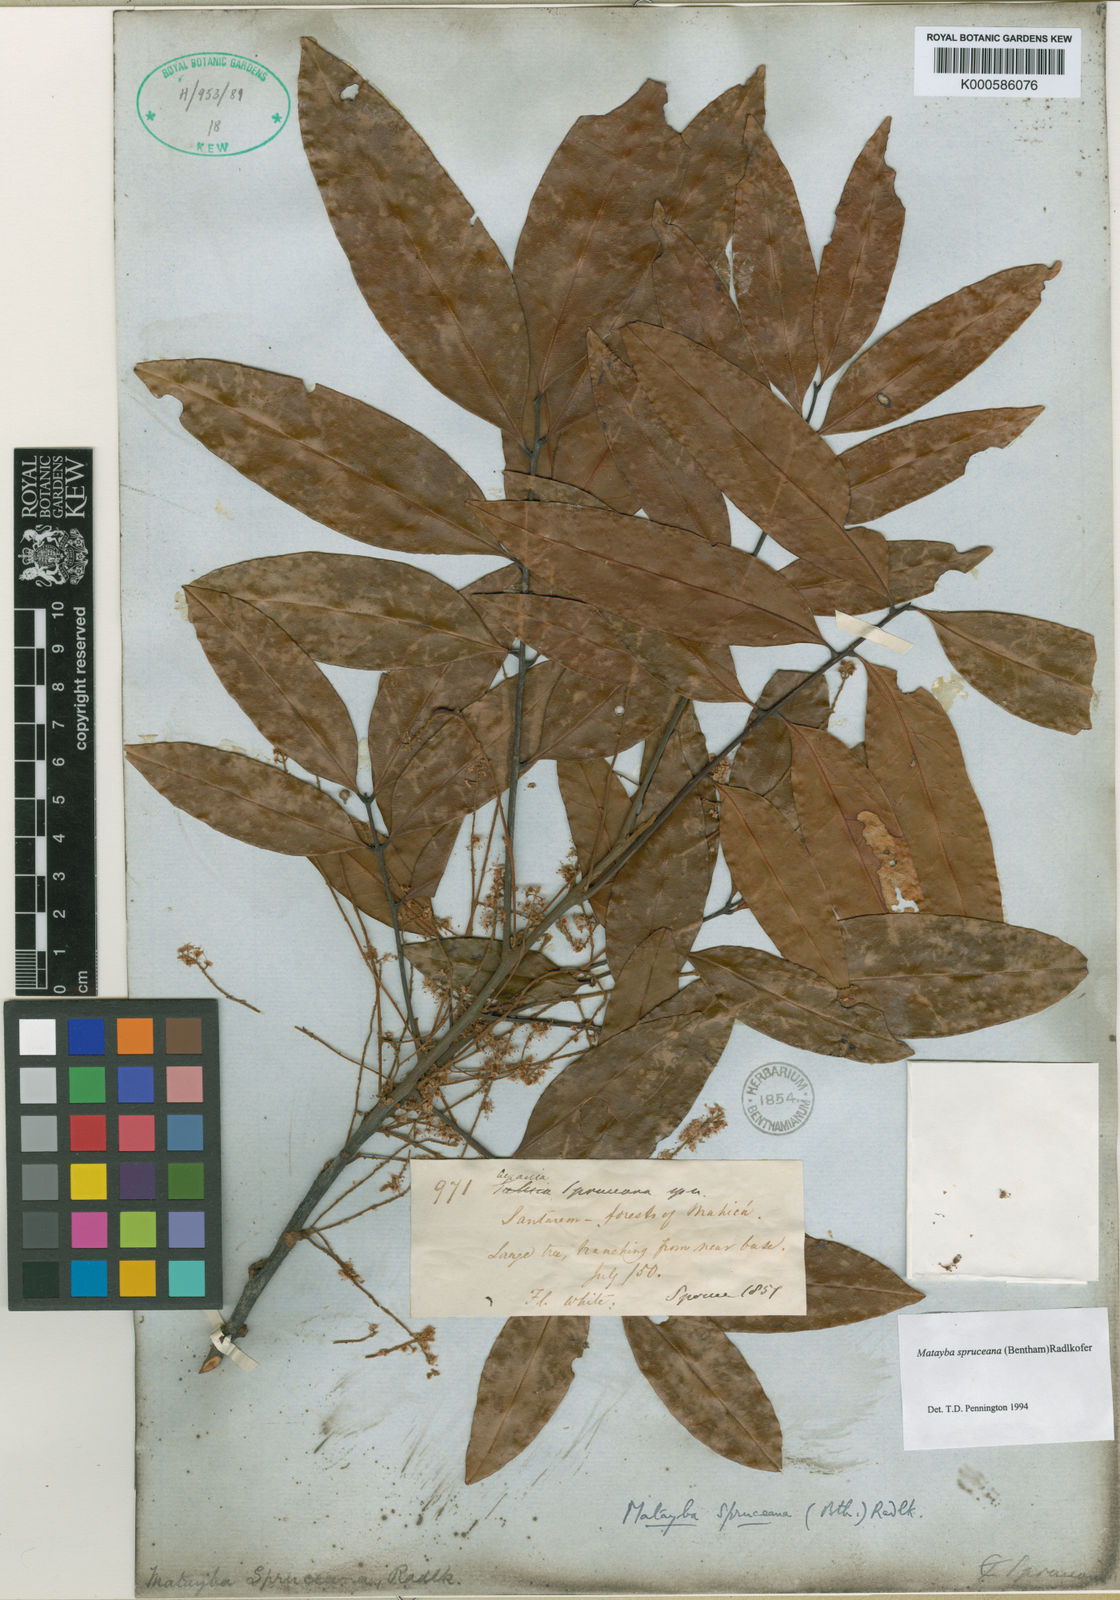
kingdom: Plantae
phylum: Tracheophyta
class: Magnoliopsida
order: Sapindales
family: Sapindaceae
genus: Matayba
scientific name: Matayba spruceana
